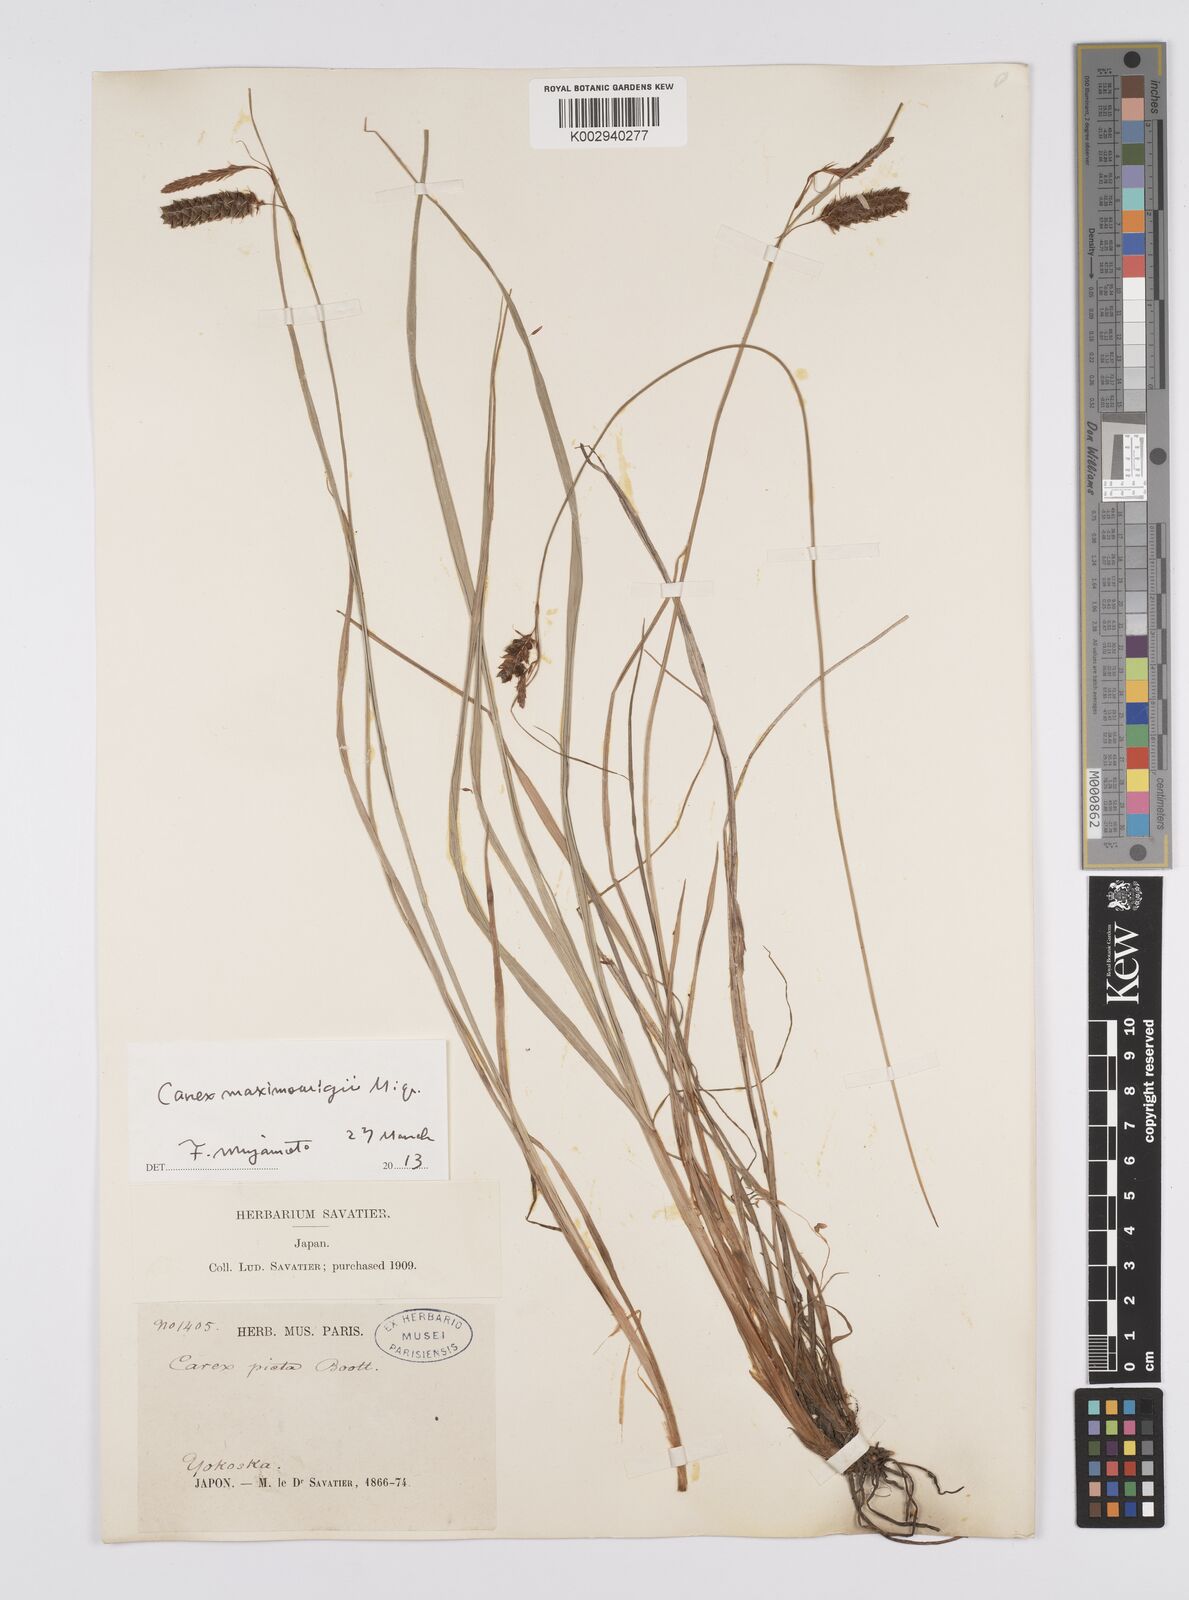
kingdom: Plantae
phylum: Tracheophyta
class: Liliopsida
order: Poales
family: Cyperaceae
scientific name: Cyperaceae
